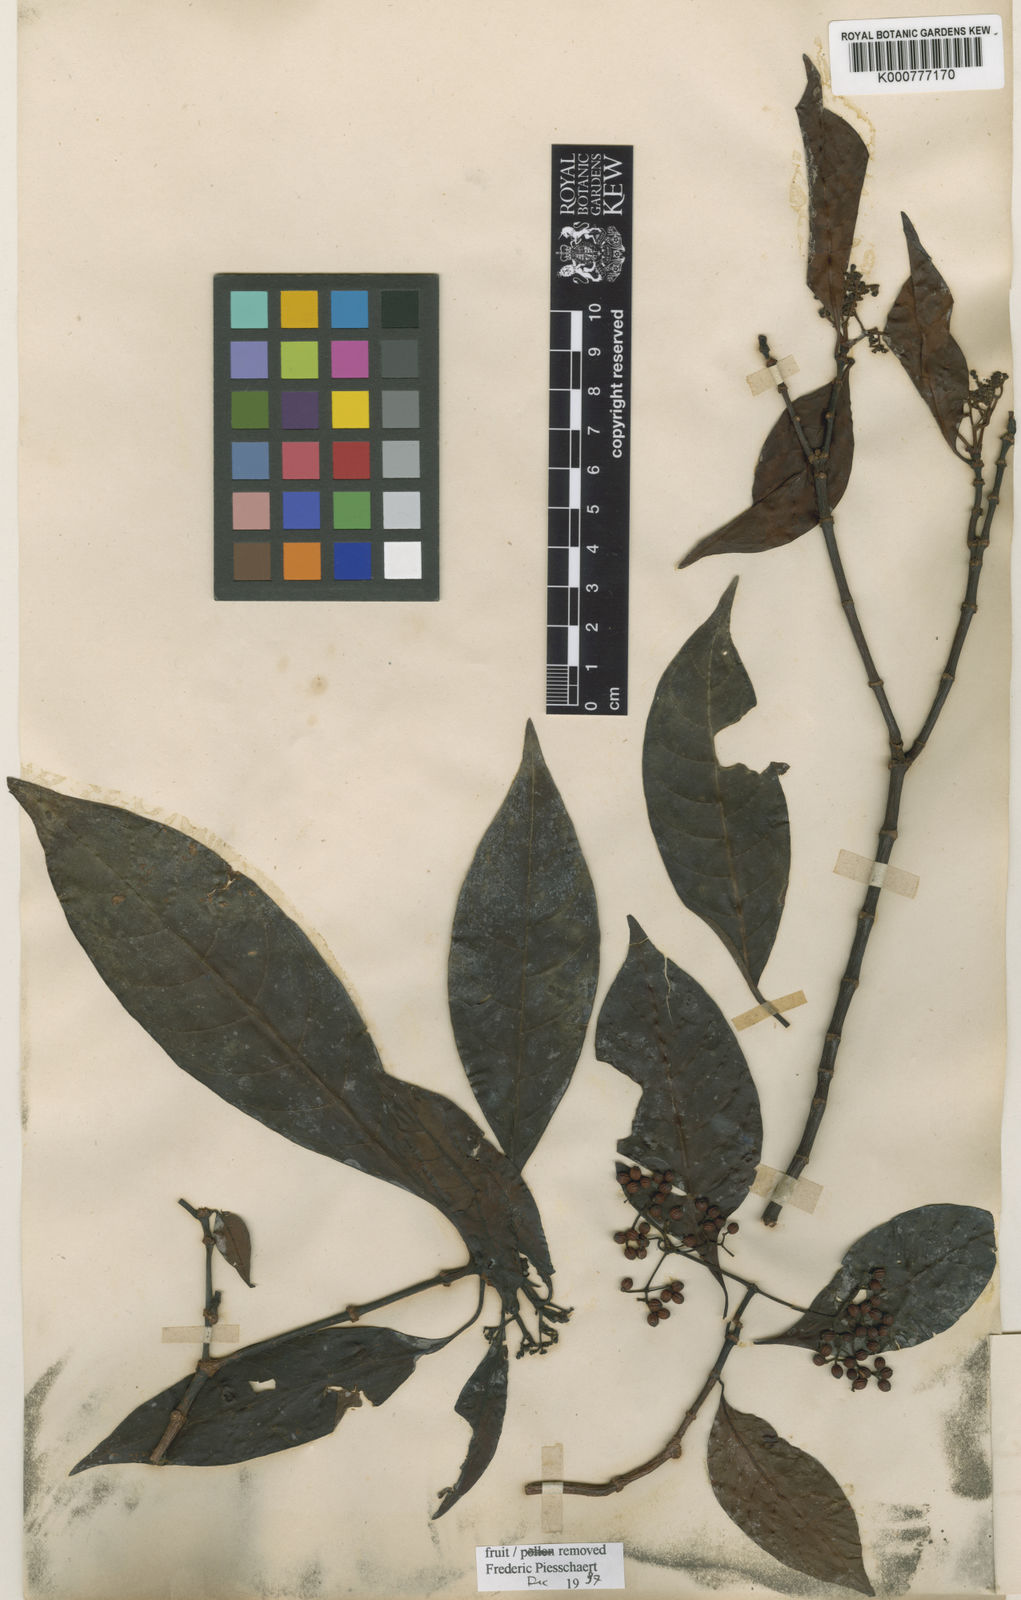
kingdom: Plantae
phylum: Tracheophyta
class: Magnoliopsida
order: Gentianales
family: Rubiaceae
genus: Psychotria
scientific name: Psychotria viridiflora
